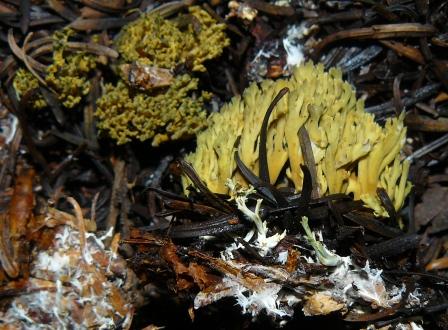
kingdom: Fungi
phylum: Basidiomycota
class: Agaricomycetes
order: Gomphales
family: Gomphaceae
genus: Phaeoclavulina
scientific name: Phaeoclavulina abietina
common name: gulgrøn koralsvamp
